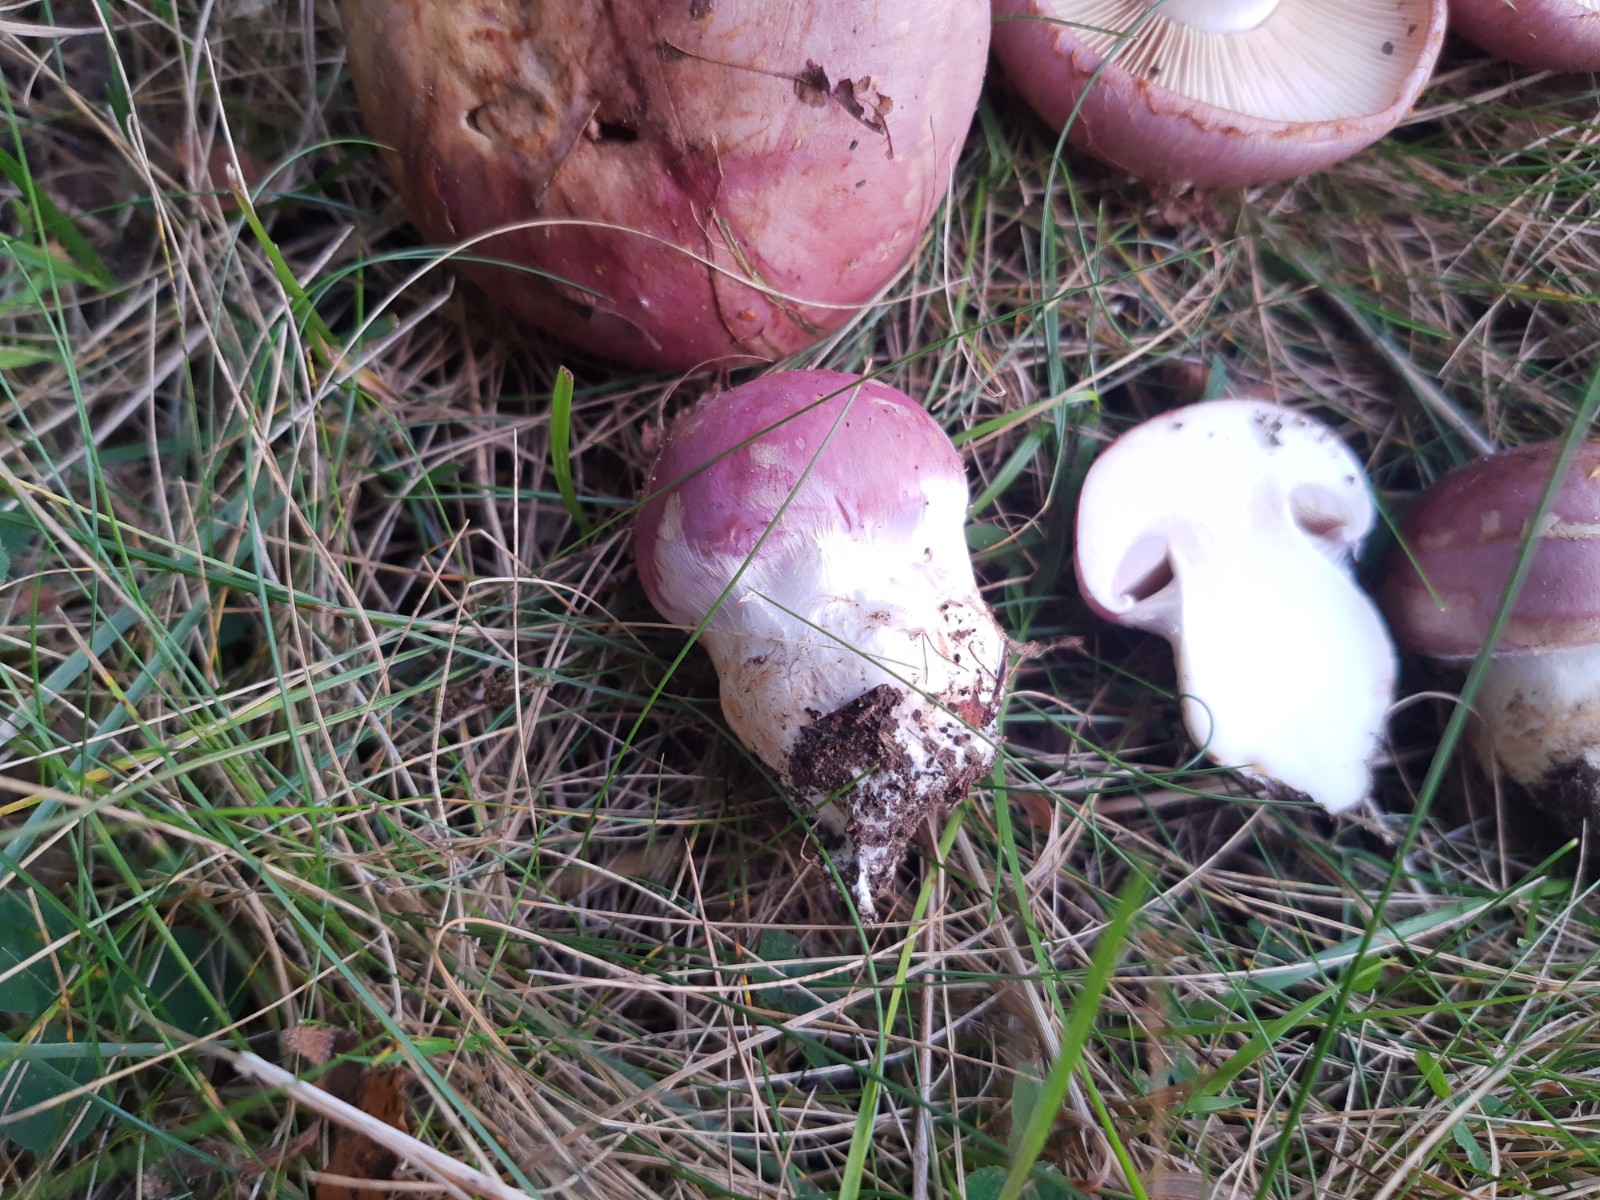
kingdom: Fungi
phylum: Basidiomycota
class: Agaricomycetes
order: Agaricales
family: Cortinariaceae
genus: Phlegmacium
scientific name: Phlegmacium balteatocumatile
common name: violettrådet slørhat
